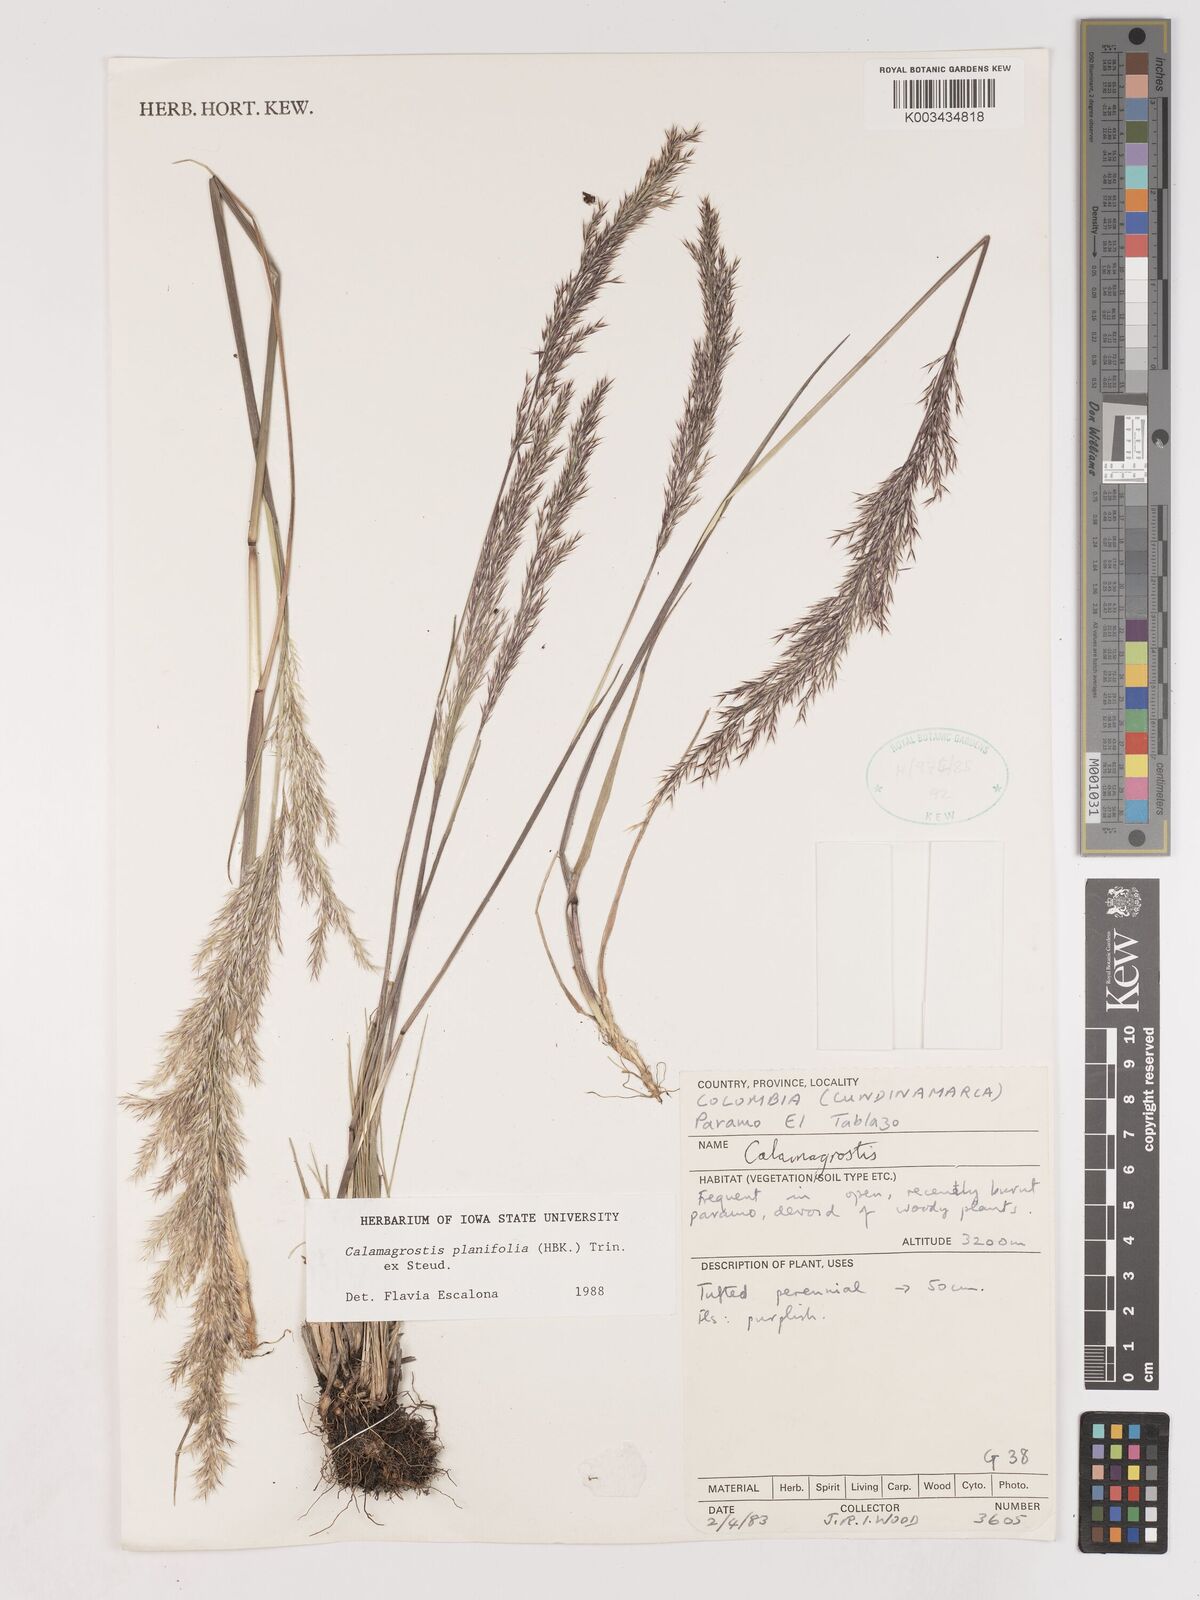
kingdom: Plantae
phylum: Tracheophyta
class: Liliopsida
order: Poales
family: Poaceae
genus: Peyritschia
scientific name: Peyritschia planifolia
